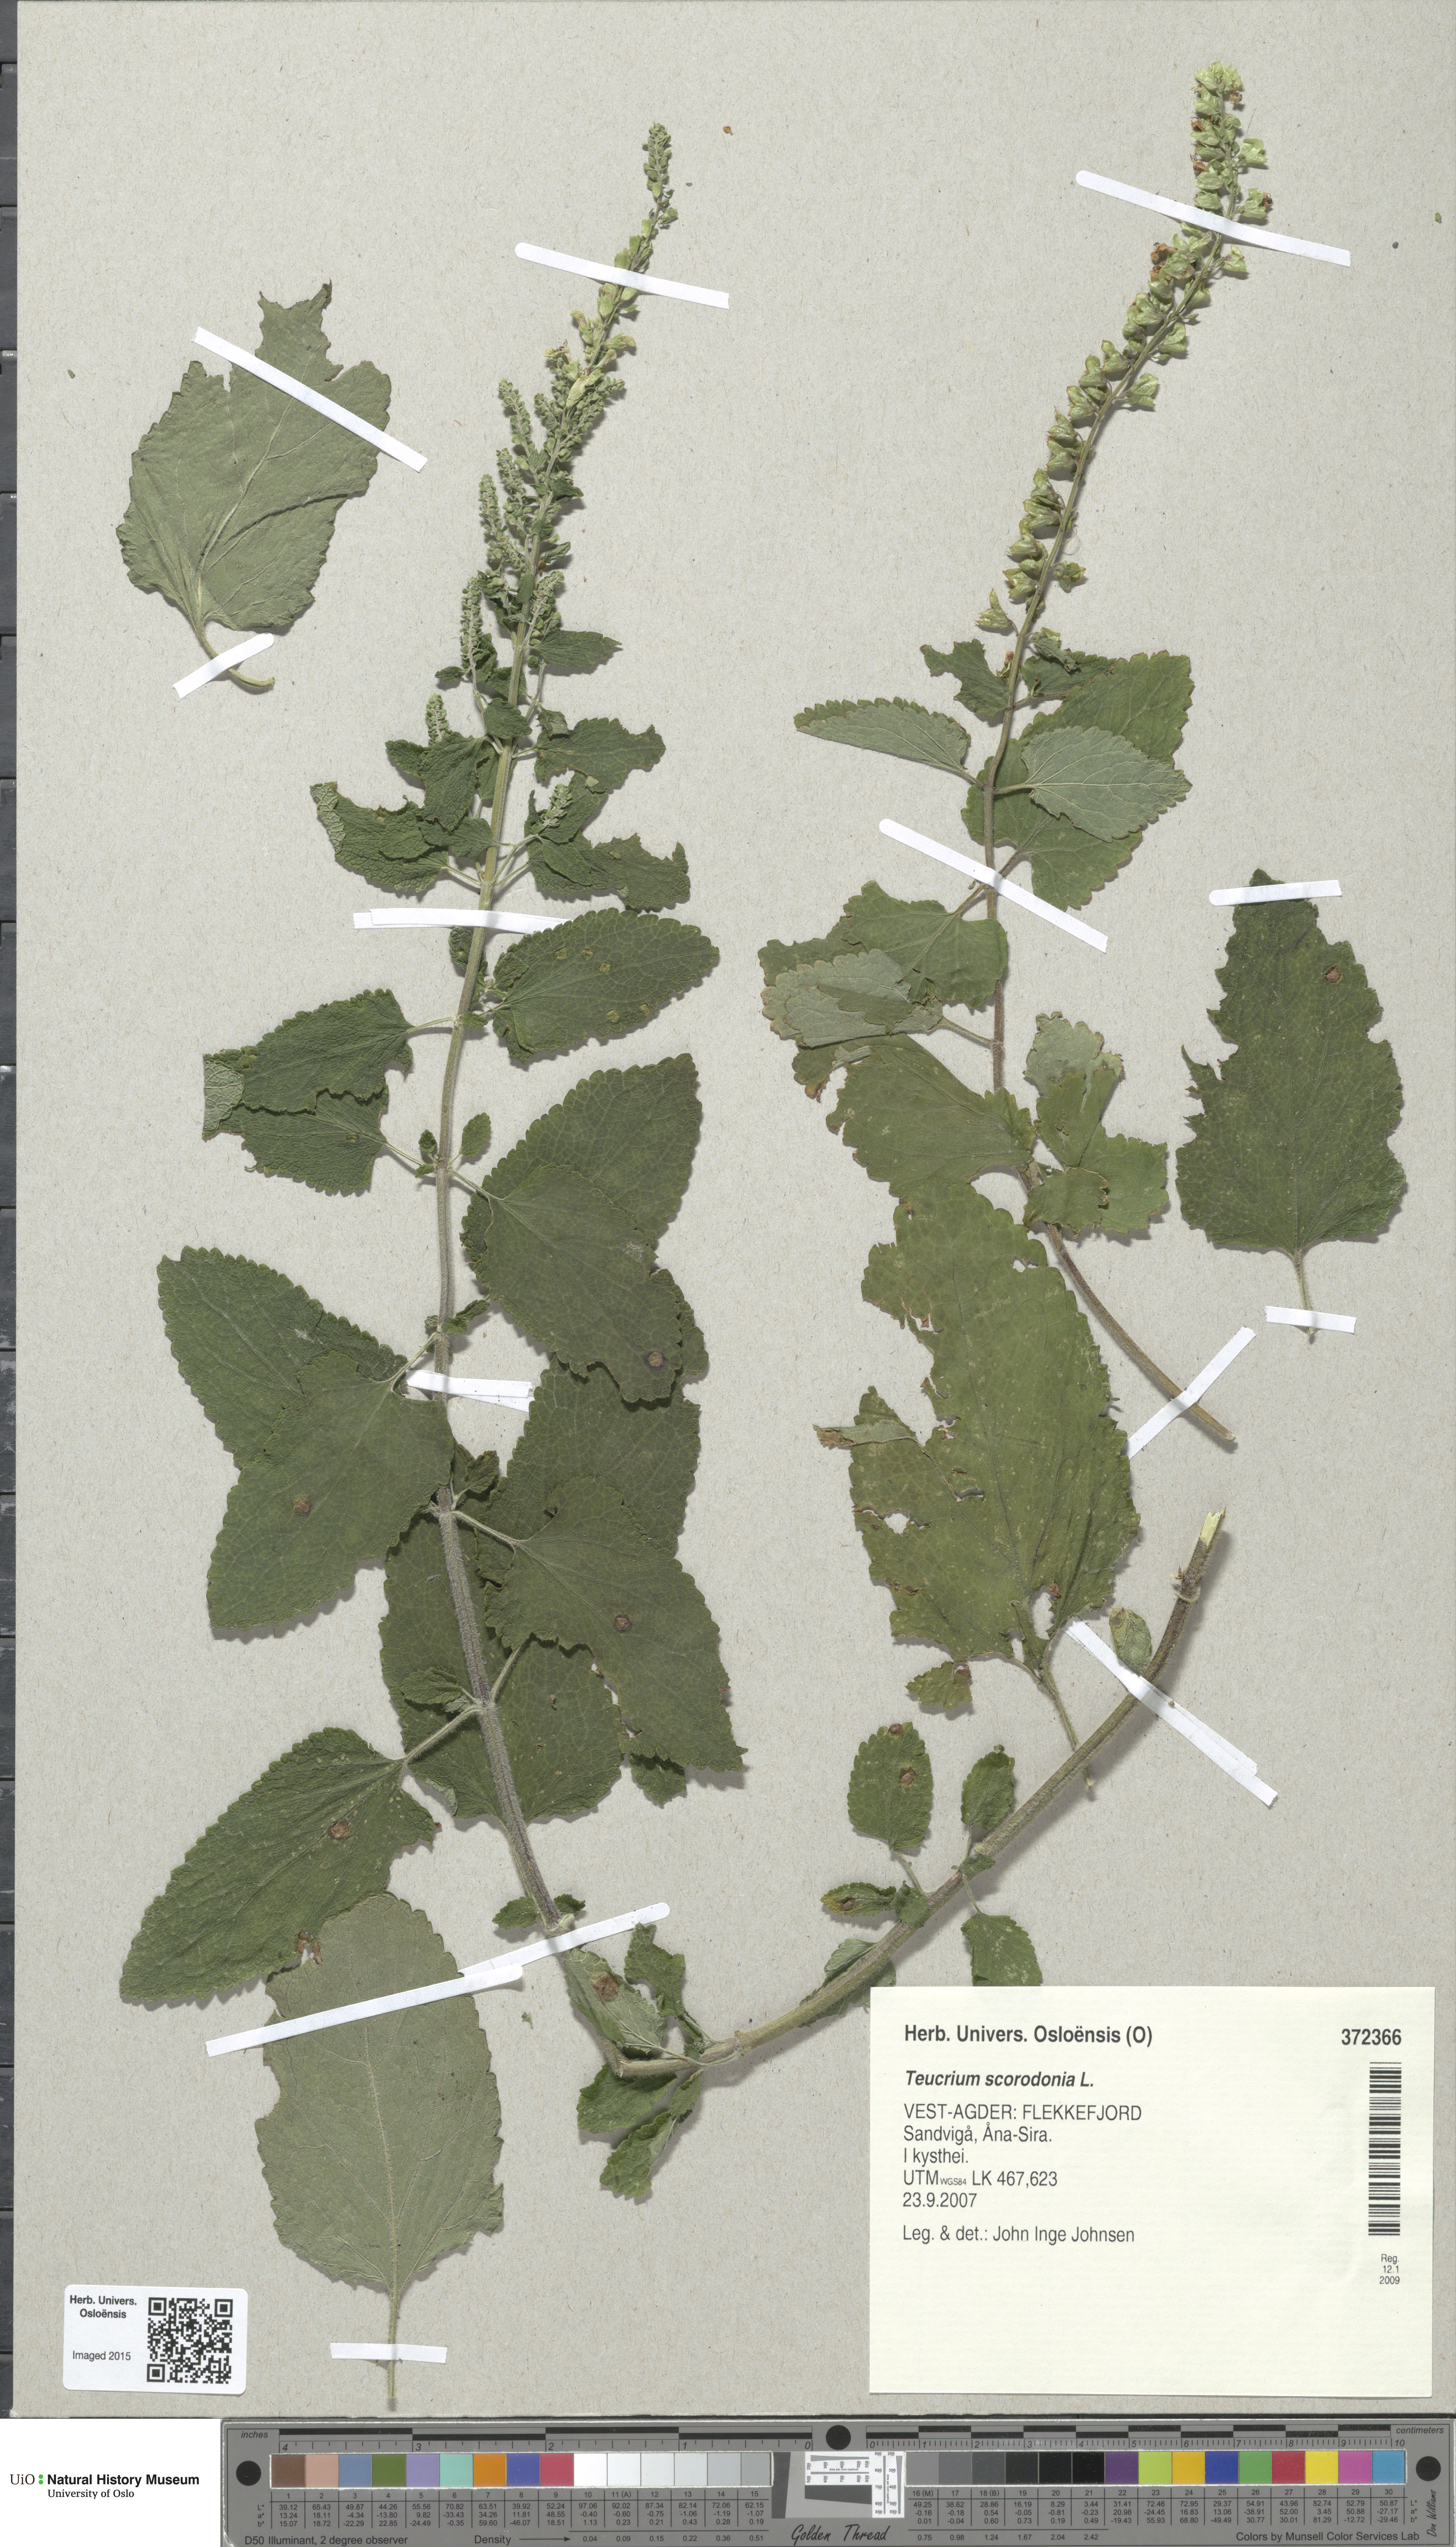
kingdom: Plantae
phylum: Tracheophyta
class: Magnoliopsida
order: Lamiales
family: Lamiaceae
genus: Teucrium
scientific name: Teucrium scorodonia
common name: Woodland germander
